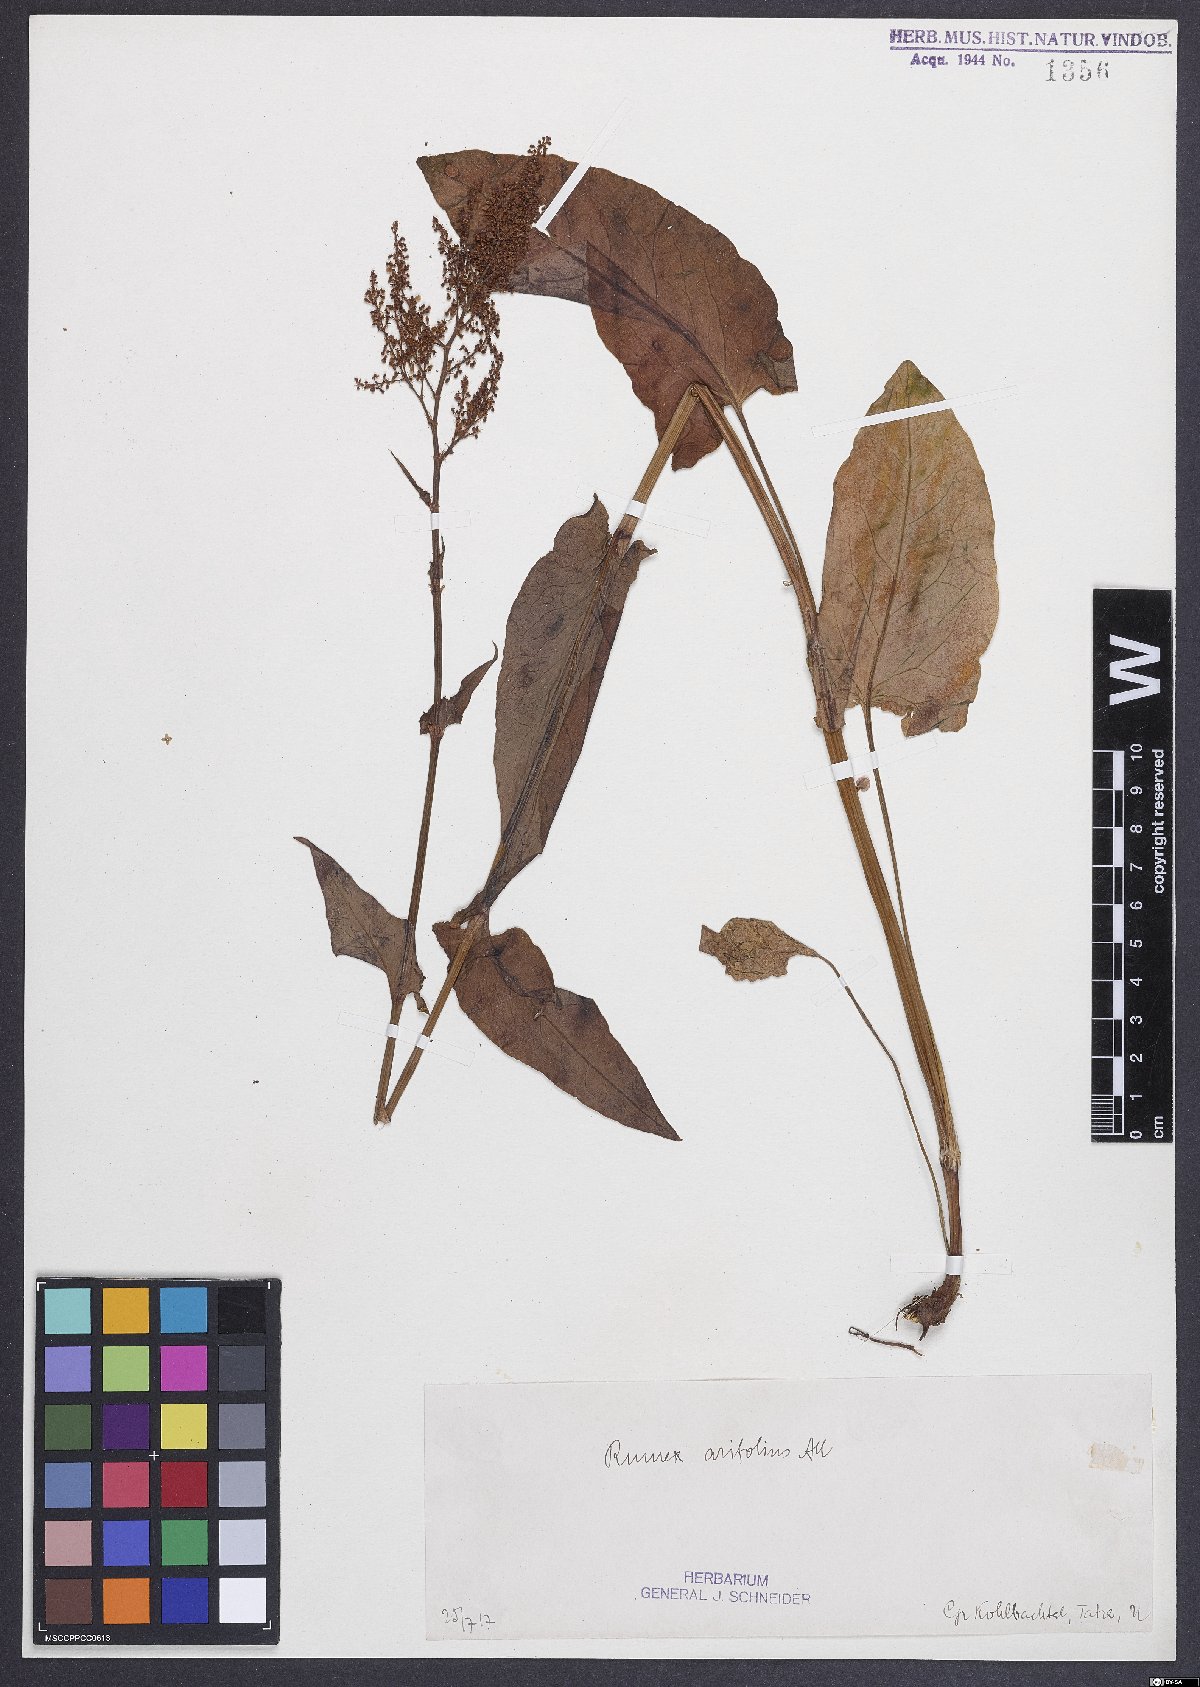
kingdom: Plantae
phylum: Tracheophyta
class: Magnoliopsida
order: Caryophyllales
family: Polygonaceae
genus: Rumex
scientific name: Rumex arifolius
